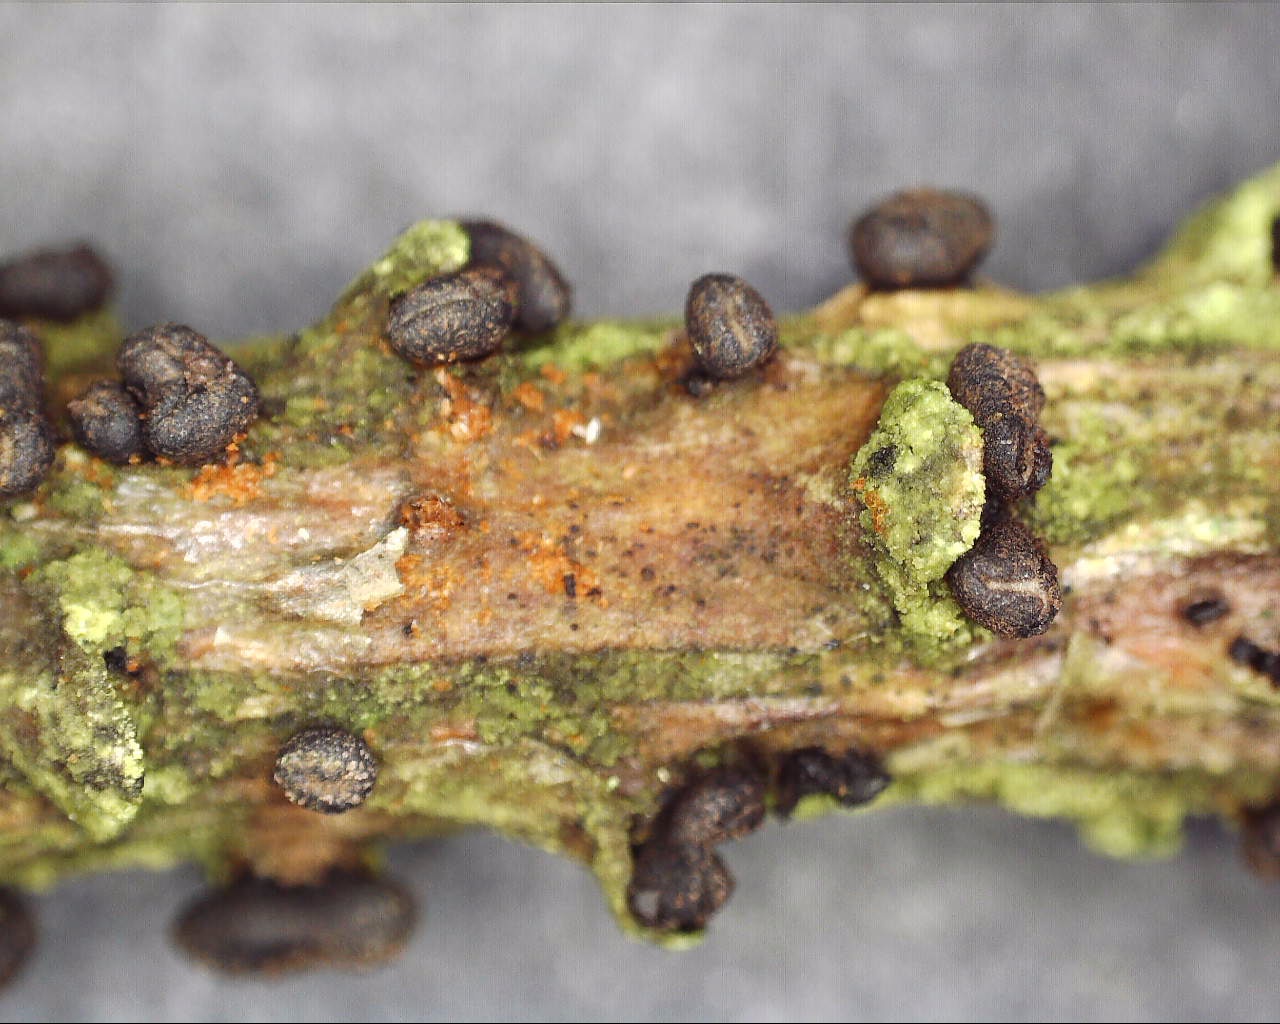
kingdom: Fungi
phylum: Ascomycota
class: Leotiomycetes
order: Helotiales
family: Cenangiaceae
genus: Cenangium
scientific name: Cenangium ferruginosum
